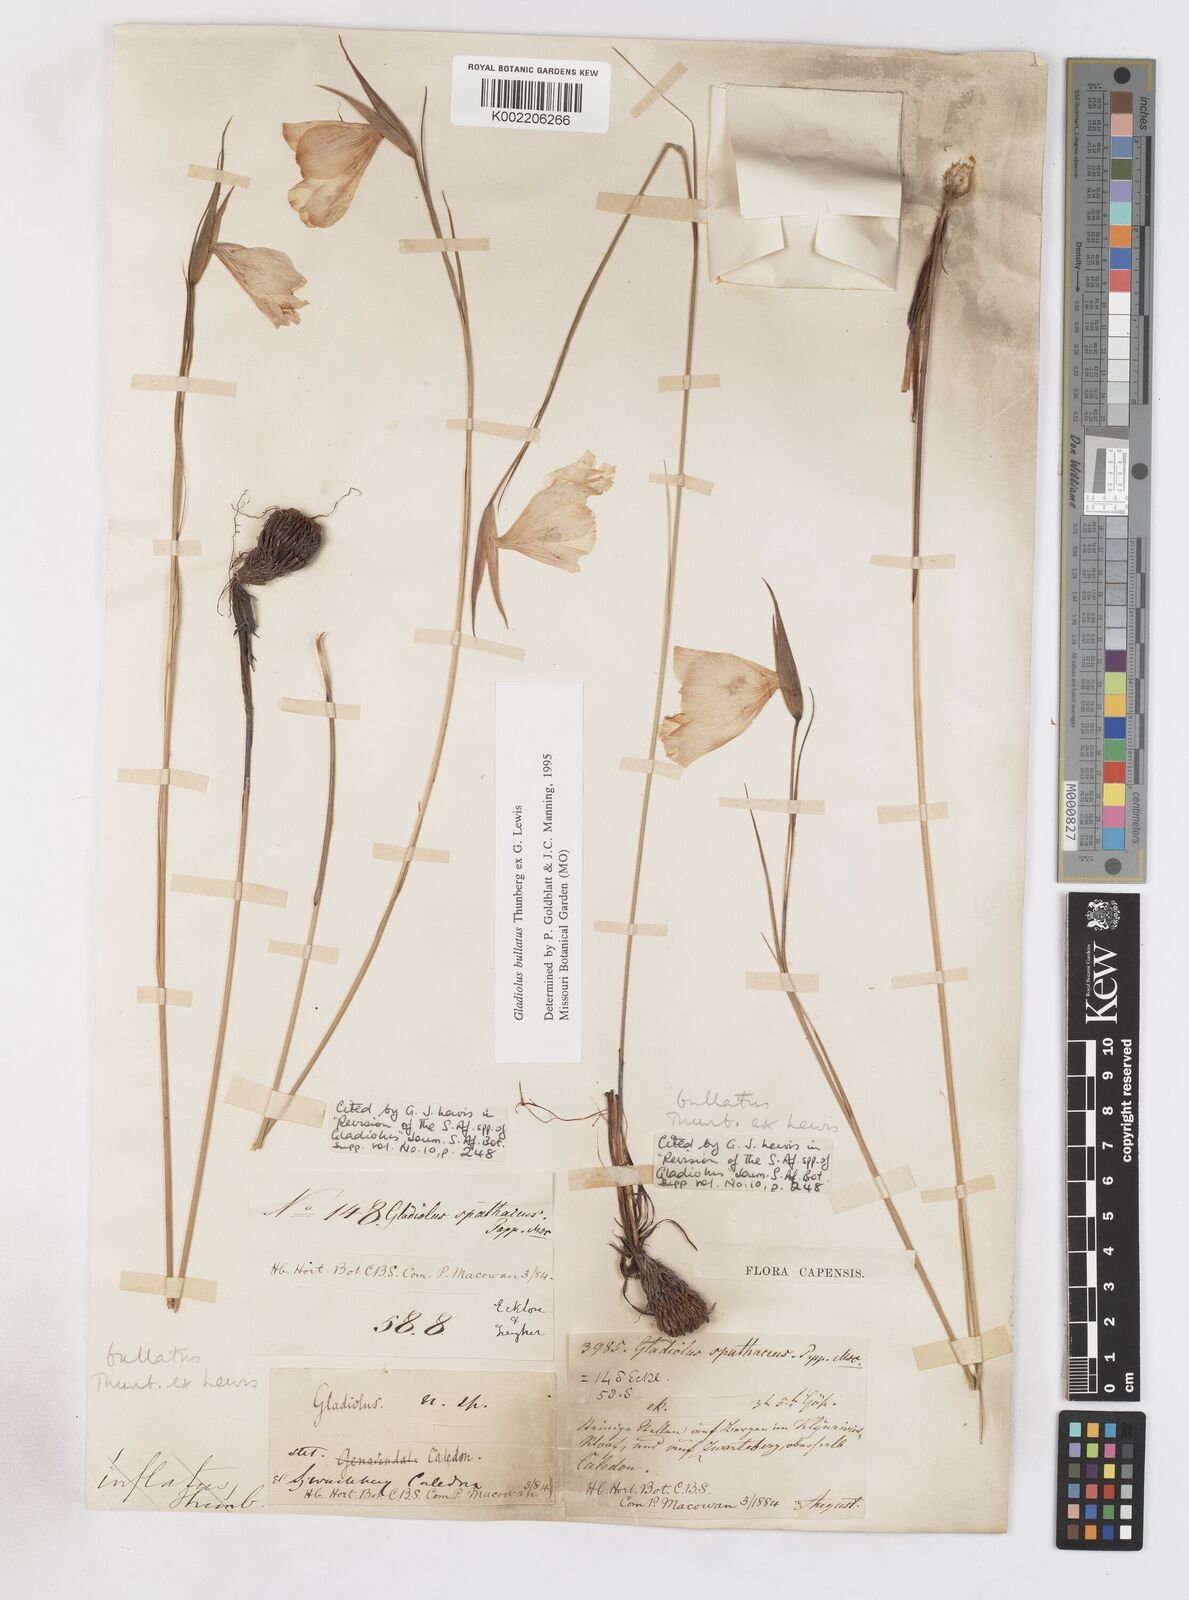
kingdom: Plantae
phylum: Tracheophyta
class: Liliopsida
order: Asparagales
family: Iridaceae
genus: Gladiolus
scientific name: Gladiolus bullatus
